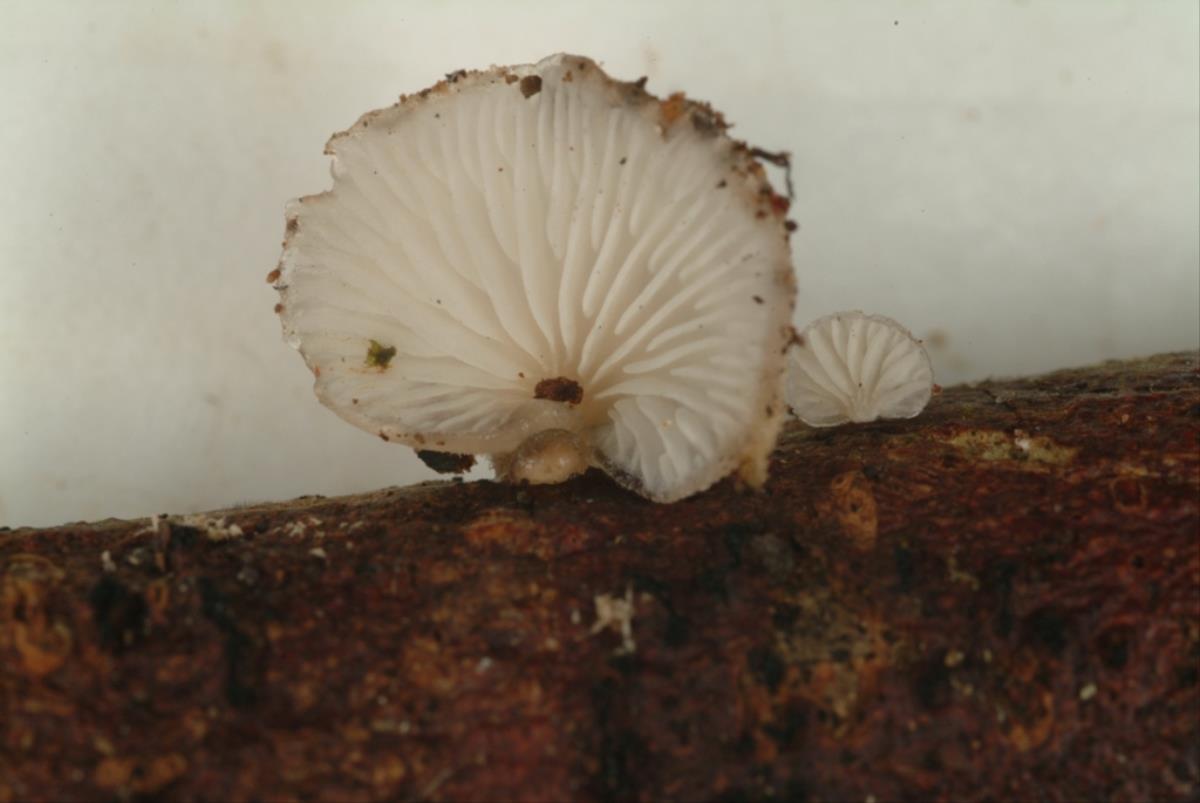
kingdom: Fungi
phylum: Basidiomycota
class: Agaricomycetes
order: Agaricales
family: Pleurotaceae
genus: Hohenbuehelia
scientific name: Hohenbuehelia
